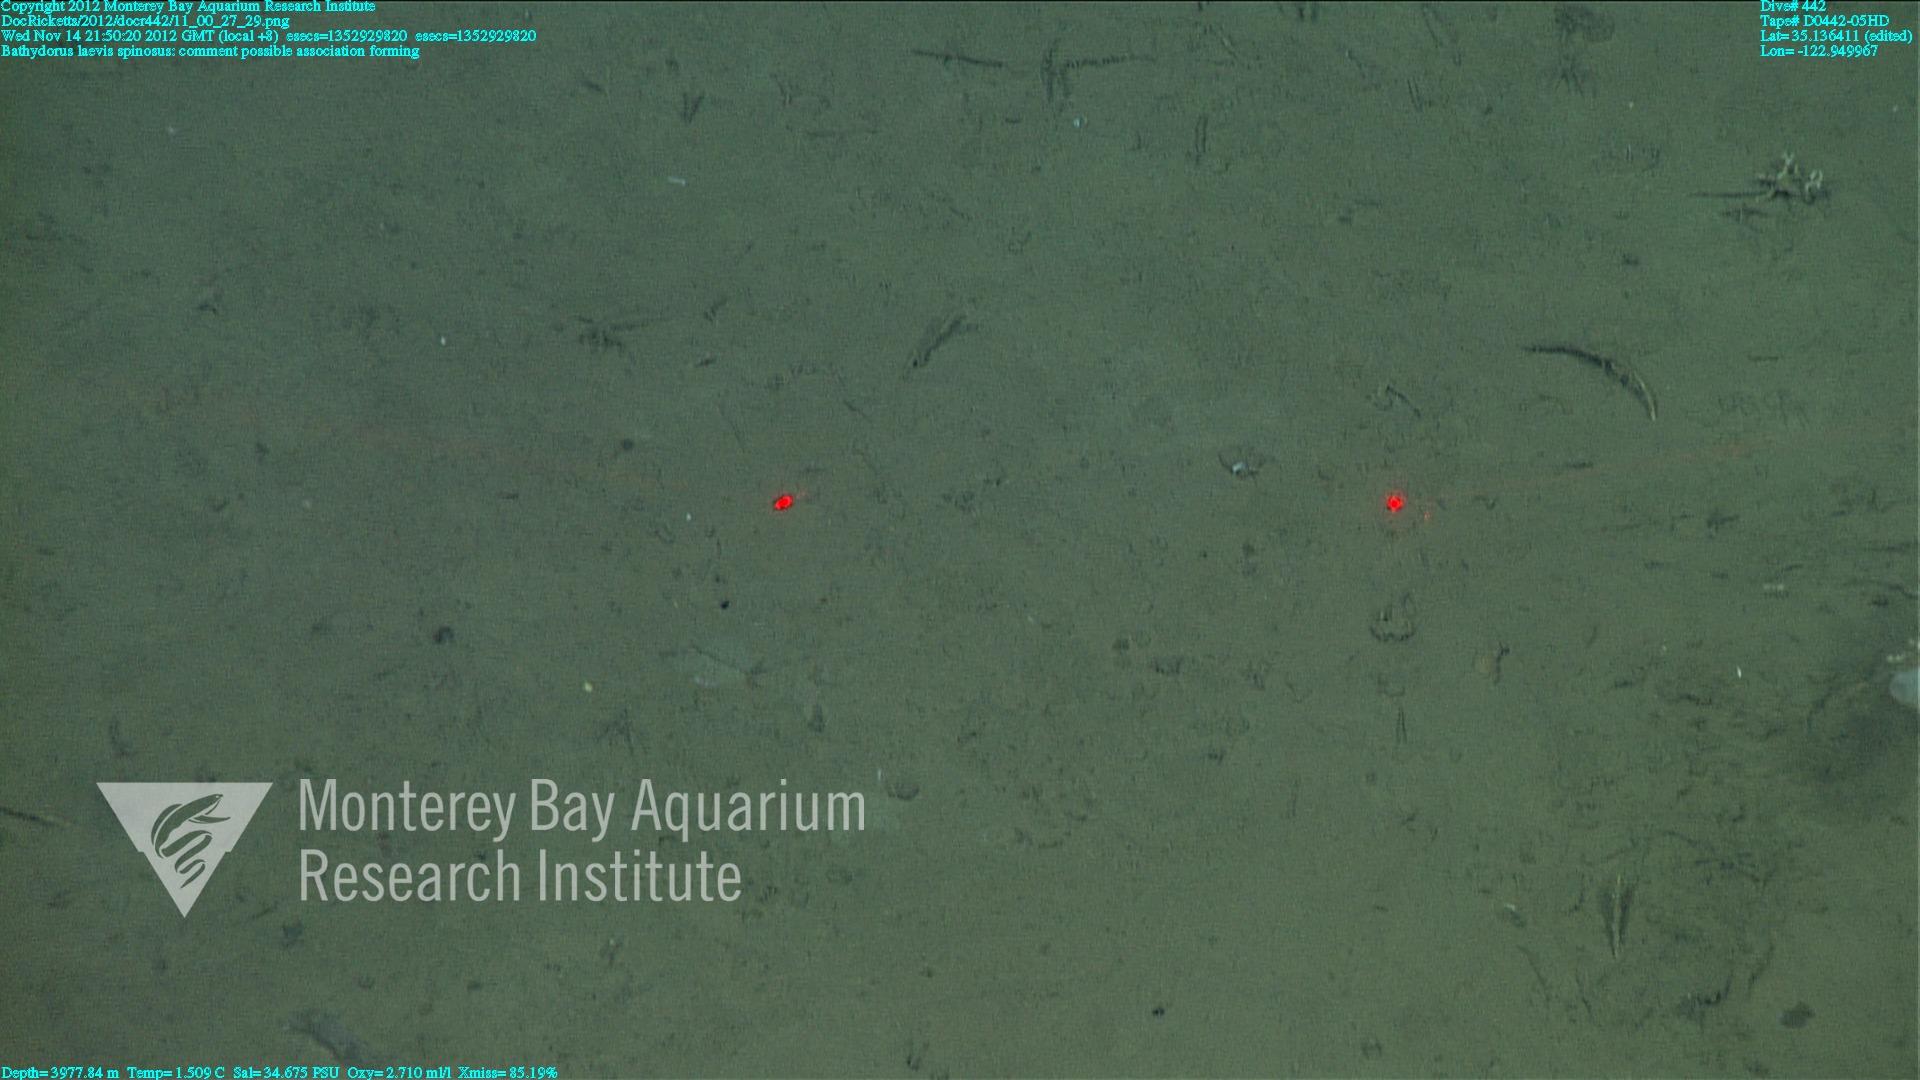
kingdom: Animalia
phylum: Porifera
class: Hexactinellida
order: Lyssacinosida
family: Rossellidae
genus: Bathydorus
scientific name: Bathydorus spinosus
